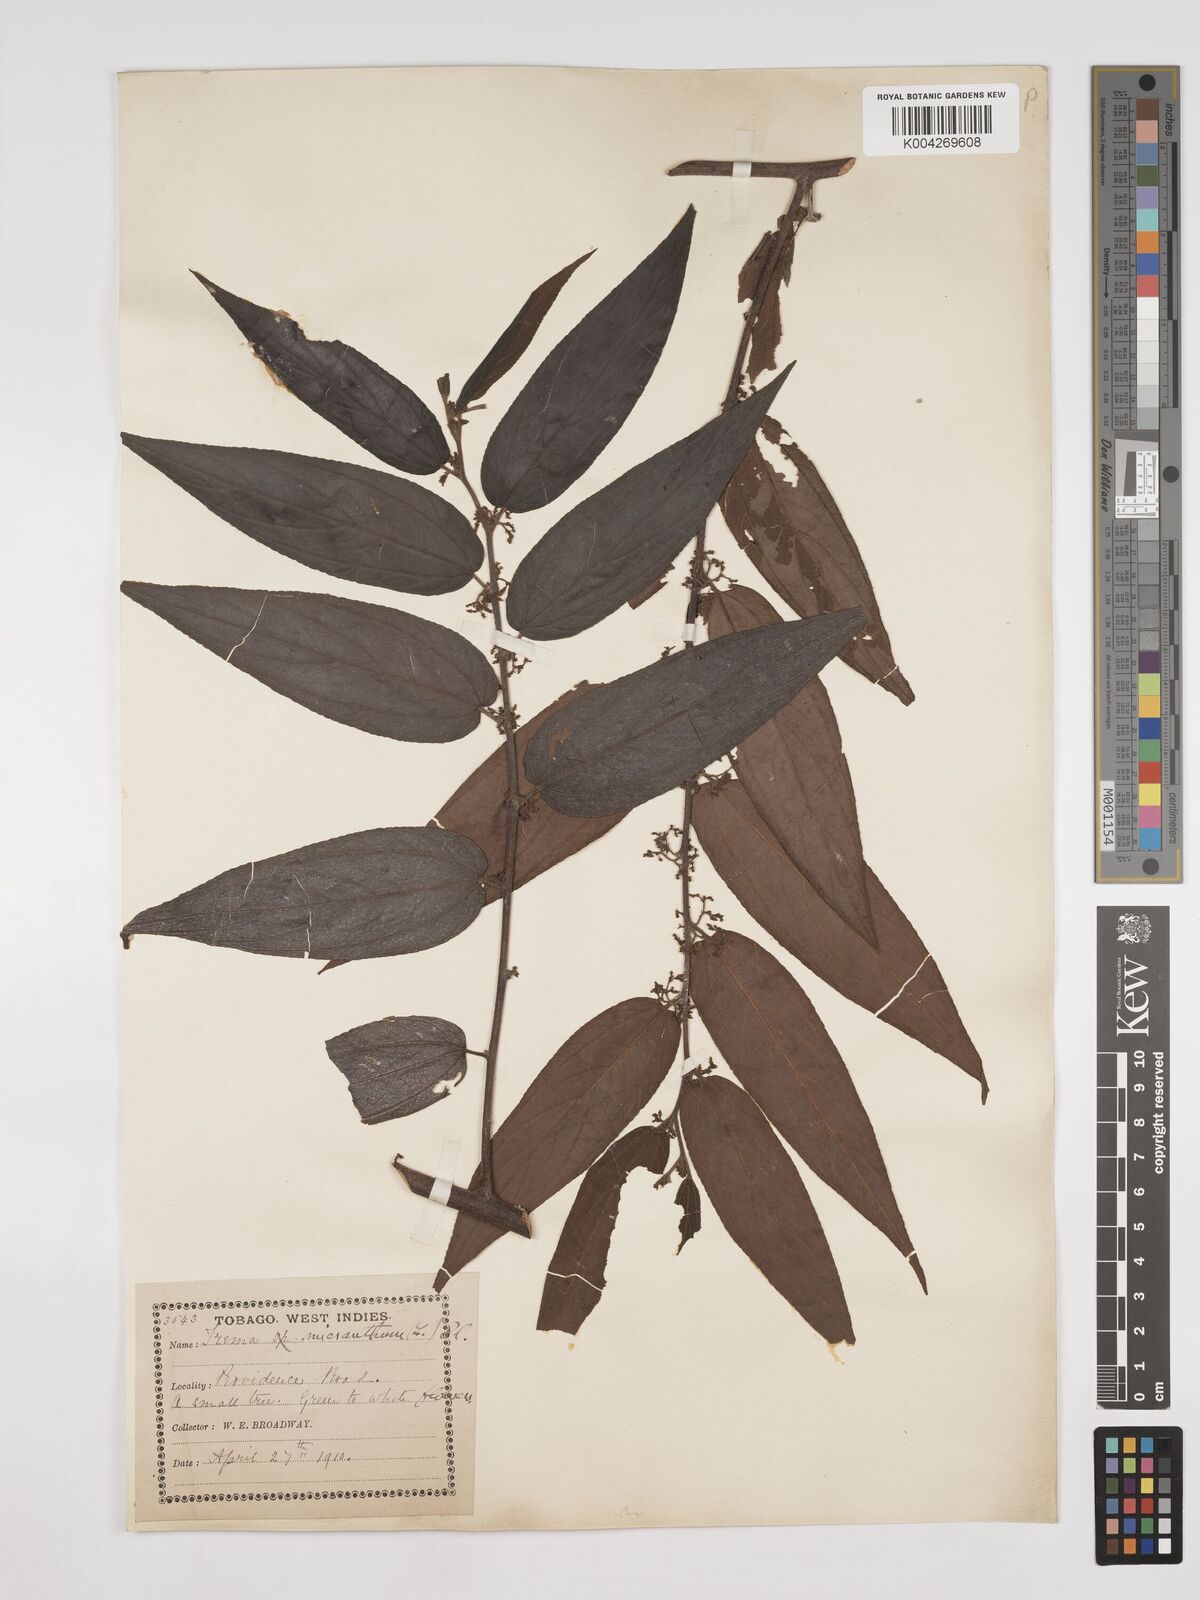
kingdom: Plantae
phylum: Tracheophyta
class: Magnoliopsida
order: Rosales
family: Cannabaceae
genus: Trema
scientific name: Trema micranthum
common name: Jamaican nettletree
